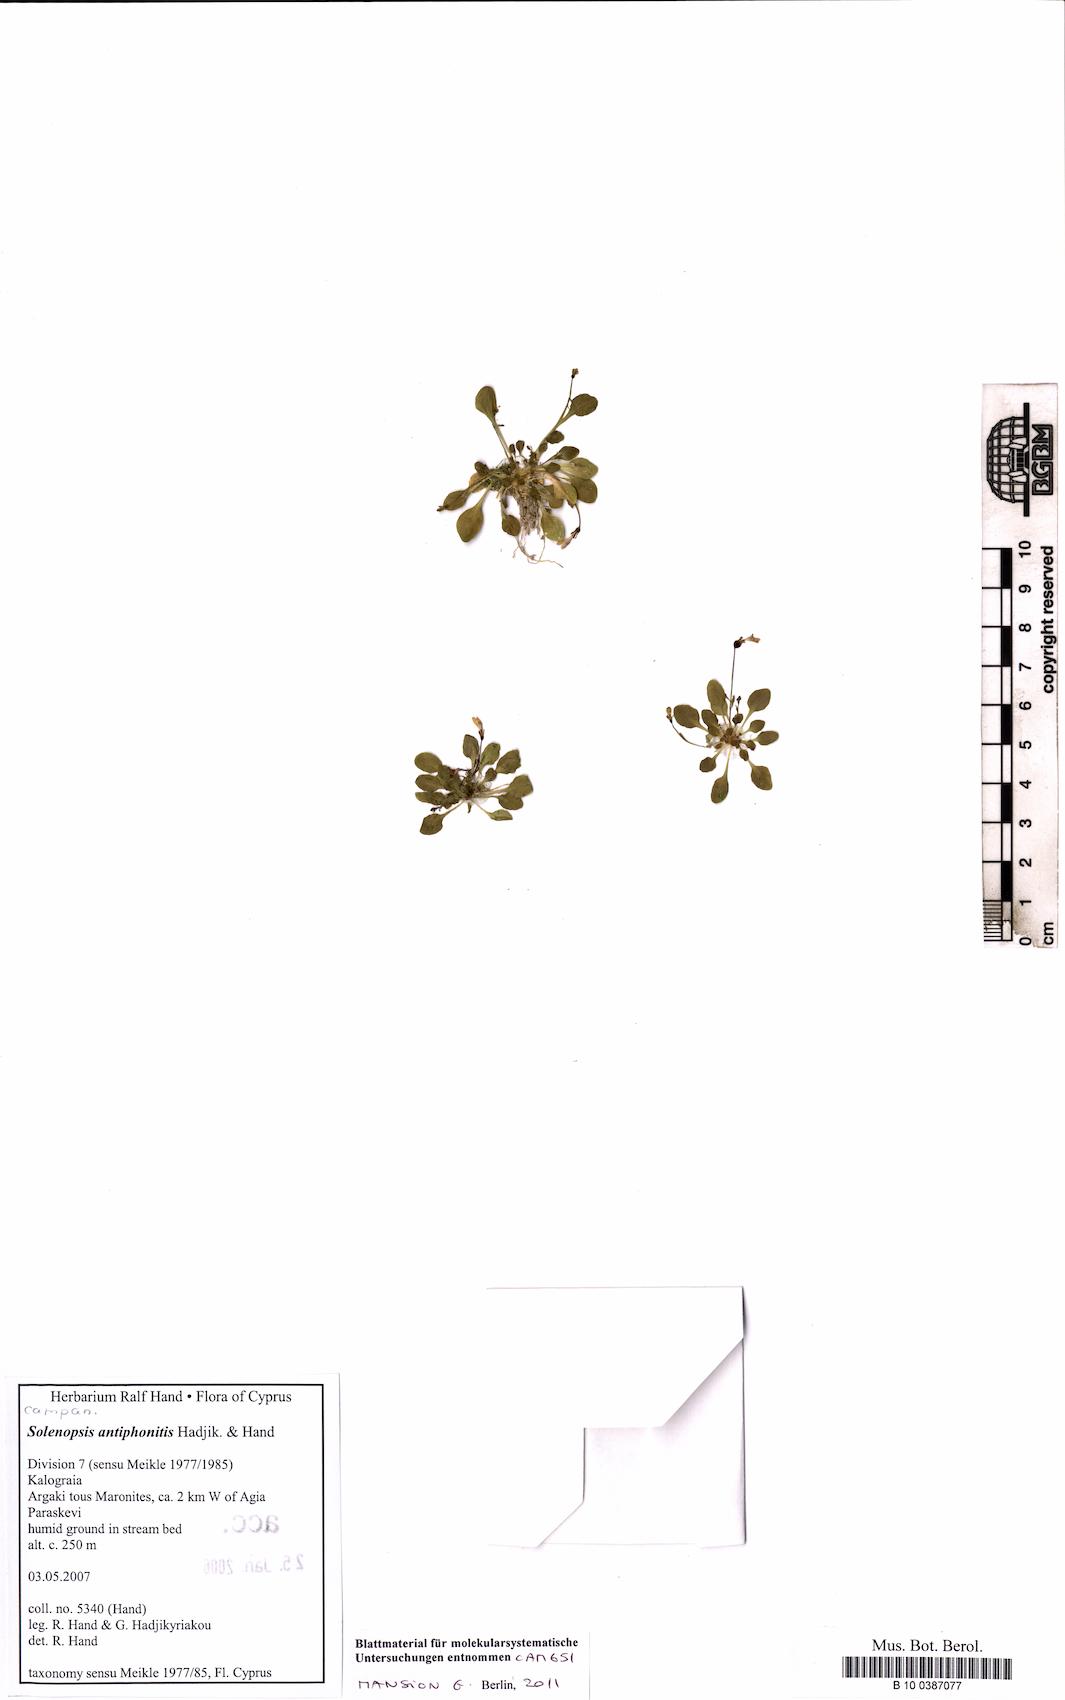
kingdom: Plantae
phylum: Tracheophyta
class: Magnoliopsida
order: Asterales
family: Campanulaceae
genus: Solenopsis
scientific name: Solenopsis antiphonitis
